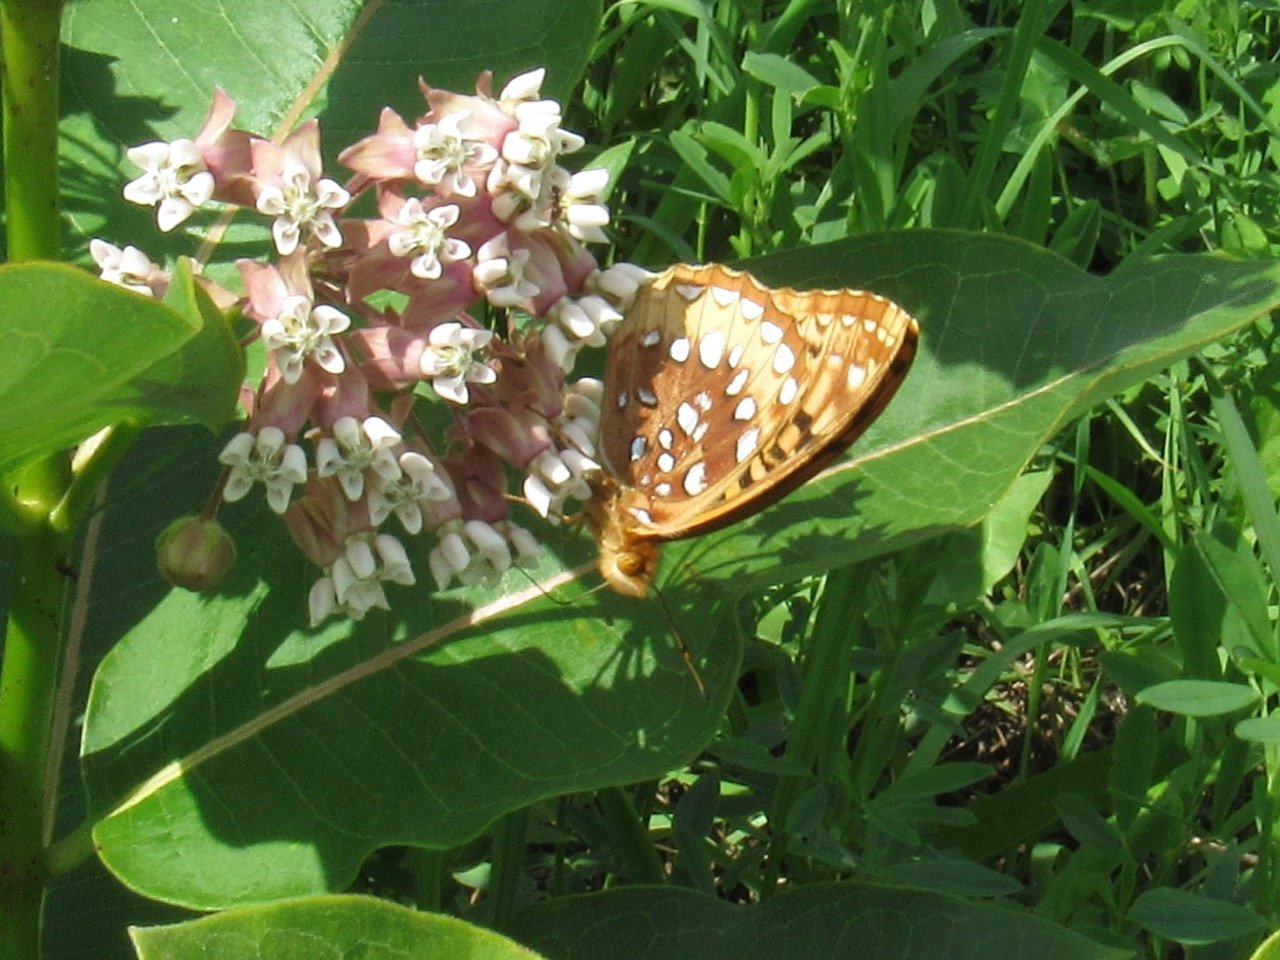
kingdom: Animalia
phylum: Arthropoda
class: Insecta
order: Lepidoptera
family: Nymphalidae
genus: Speyeria
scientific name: Speyeria cybele
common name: Great Spangled Fritillary
